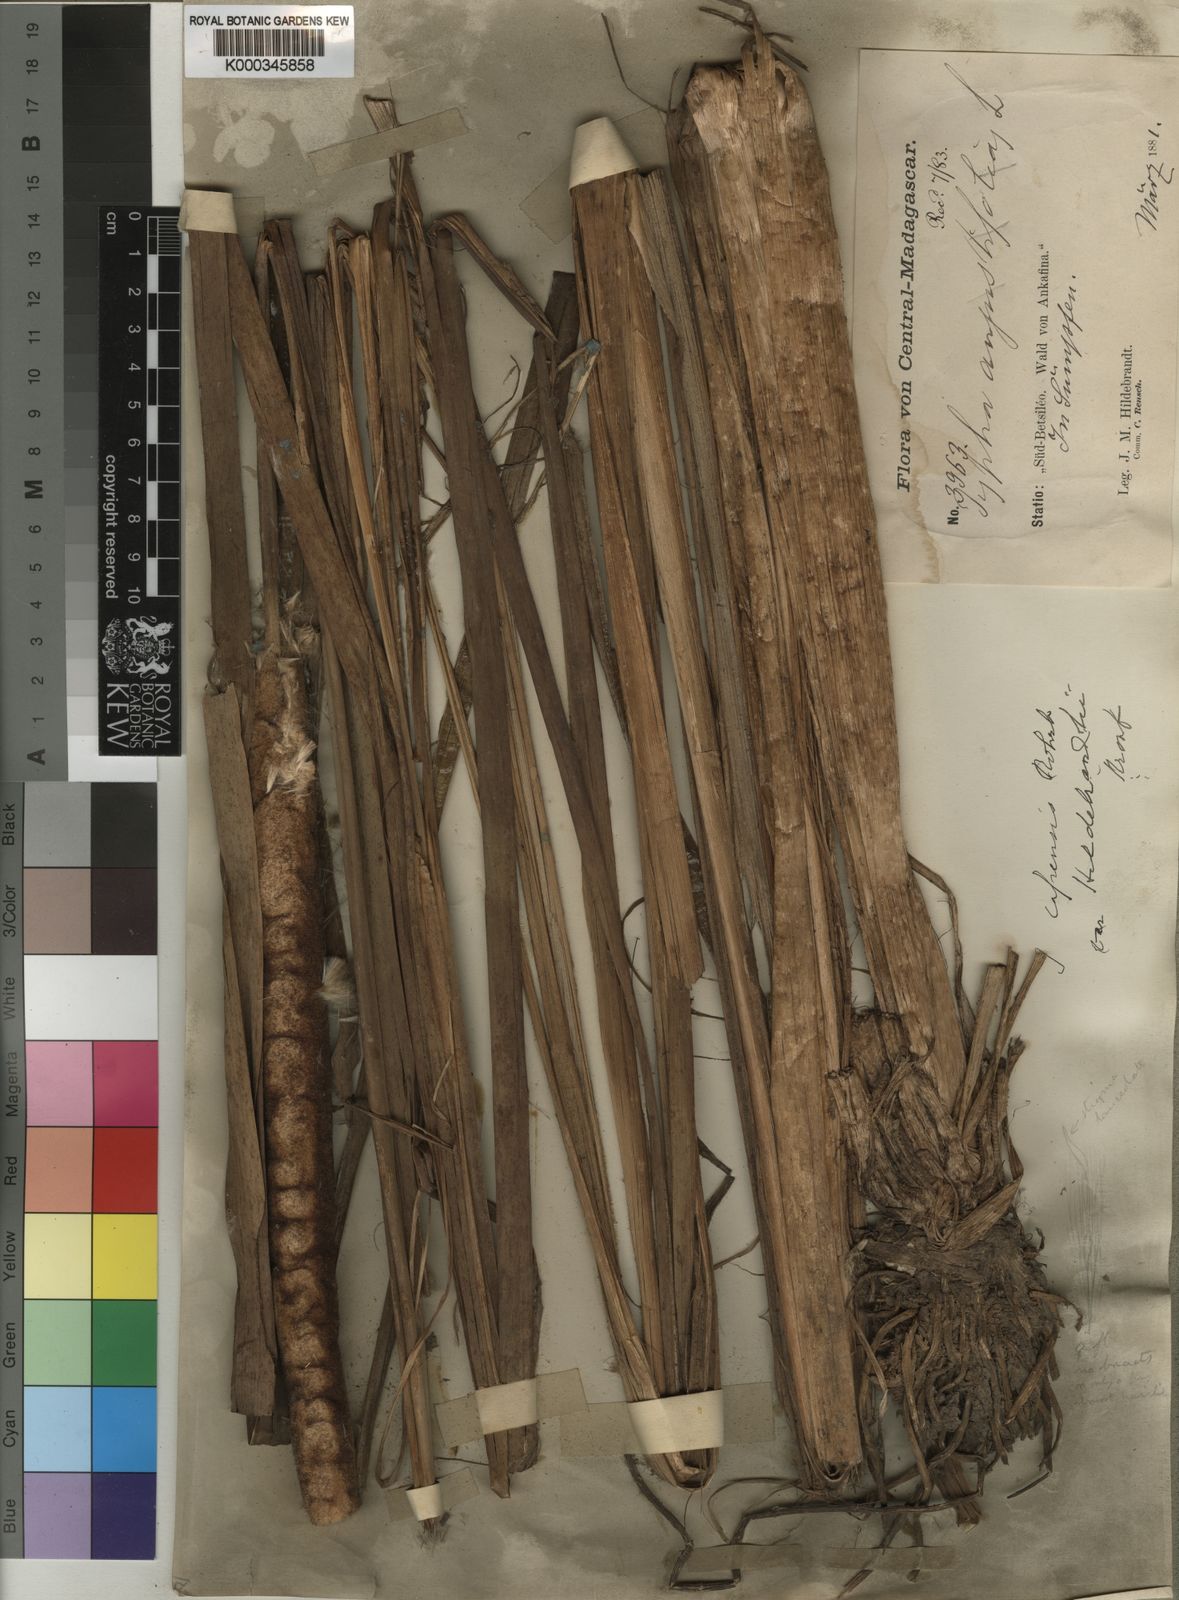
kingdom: Plantae
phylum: Tracheophyta
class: Liliopsida
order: Poales
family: Typhaceae
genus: Typha
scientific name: Typha capensis
